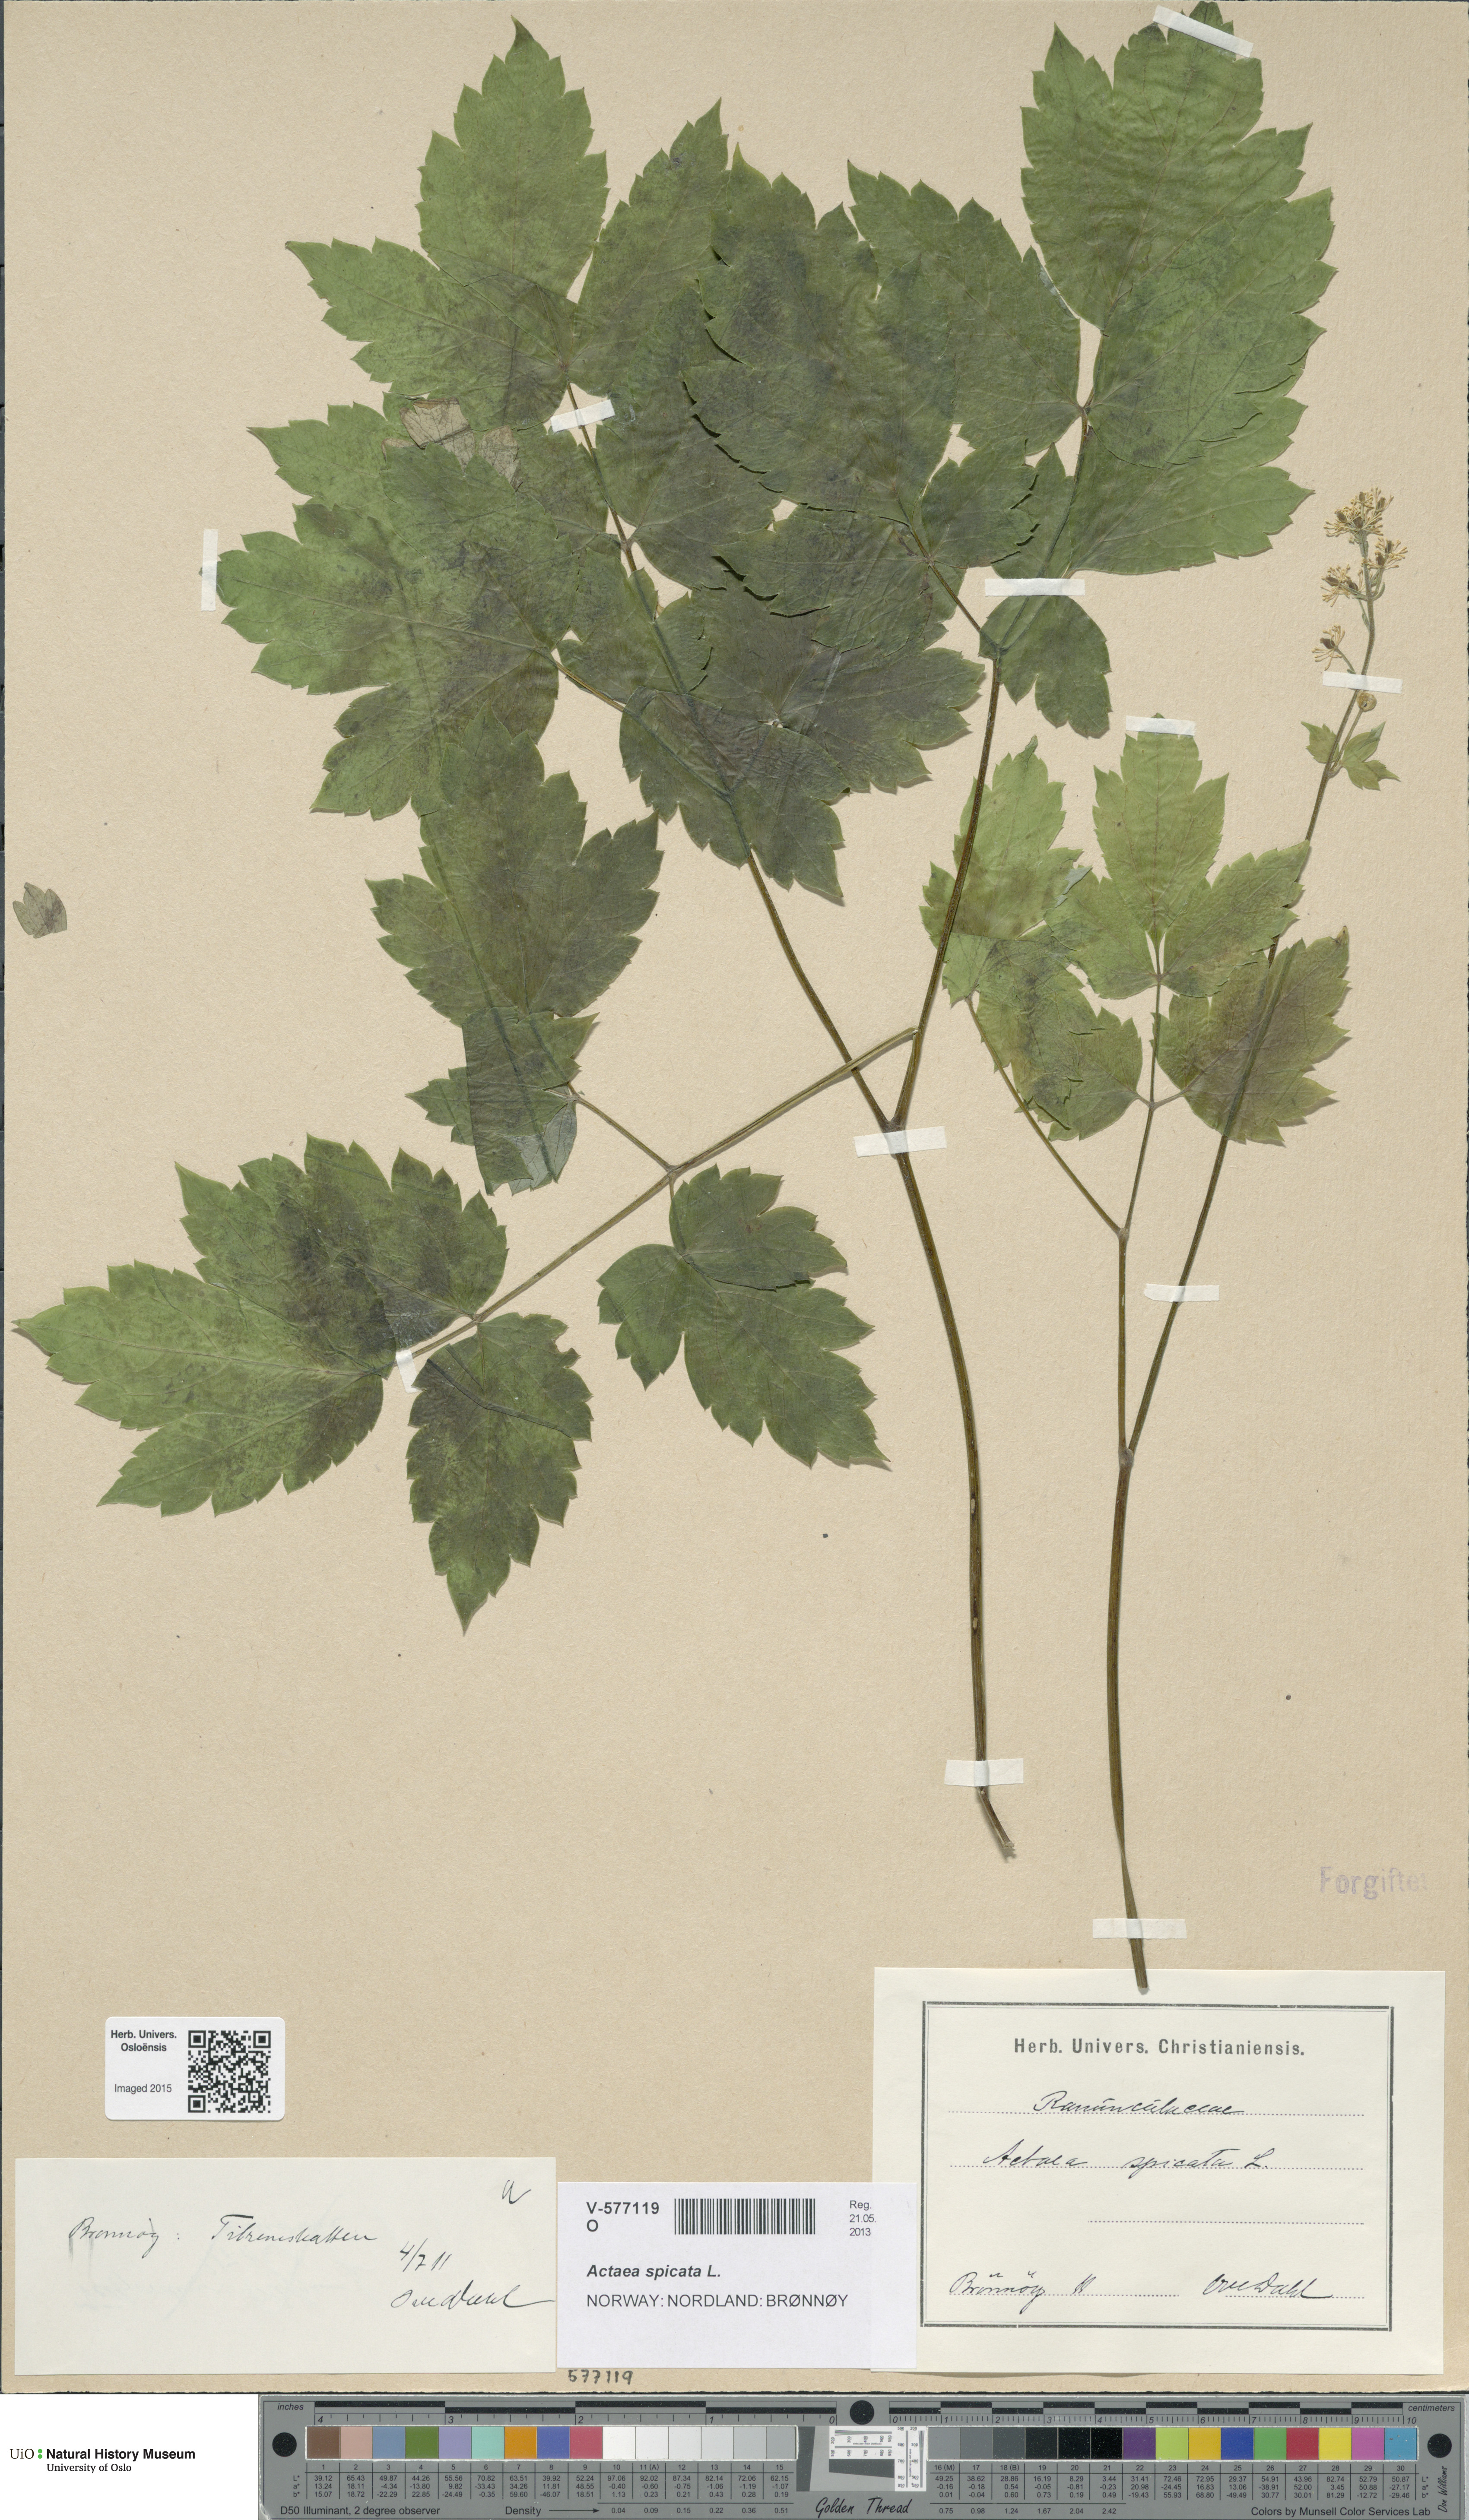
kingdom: Plantae
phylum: Tracheophyta
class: Magnoliopsida
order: Ranunculales
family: Ranunculaceae
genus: Actaea
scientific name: Actaea spicata
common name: Baneberry
